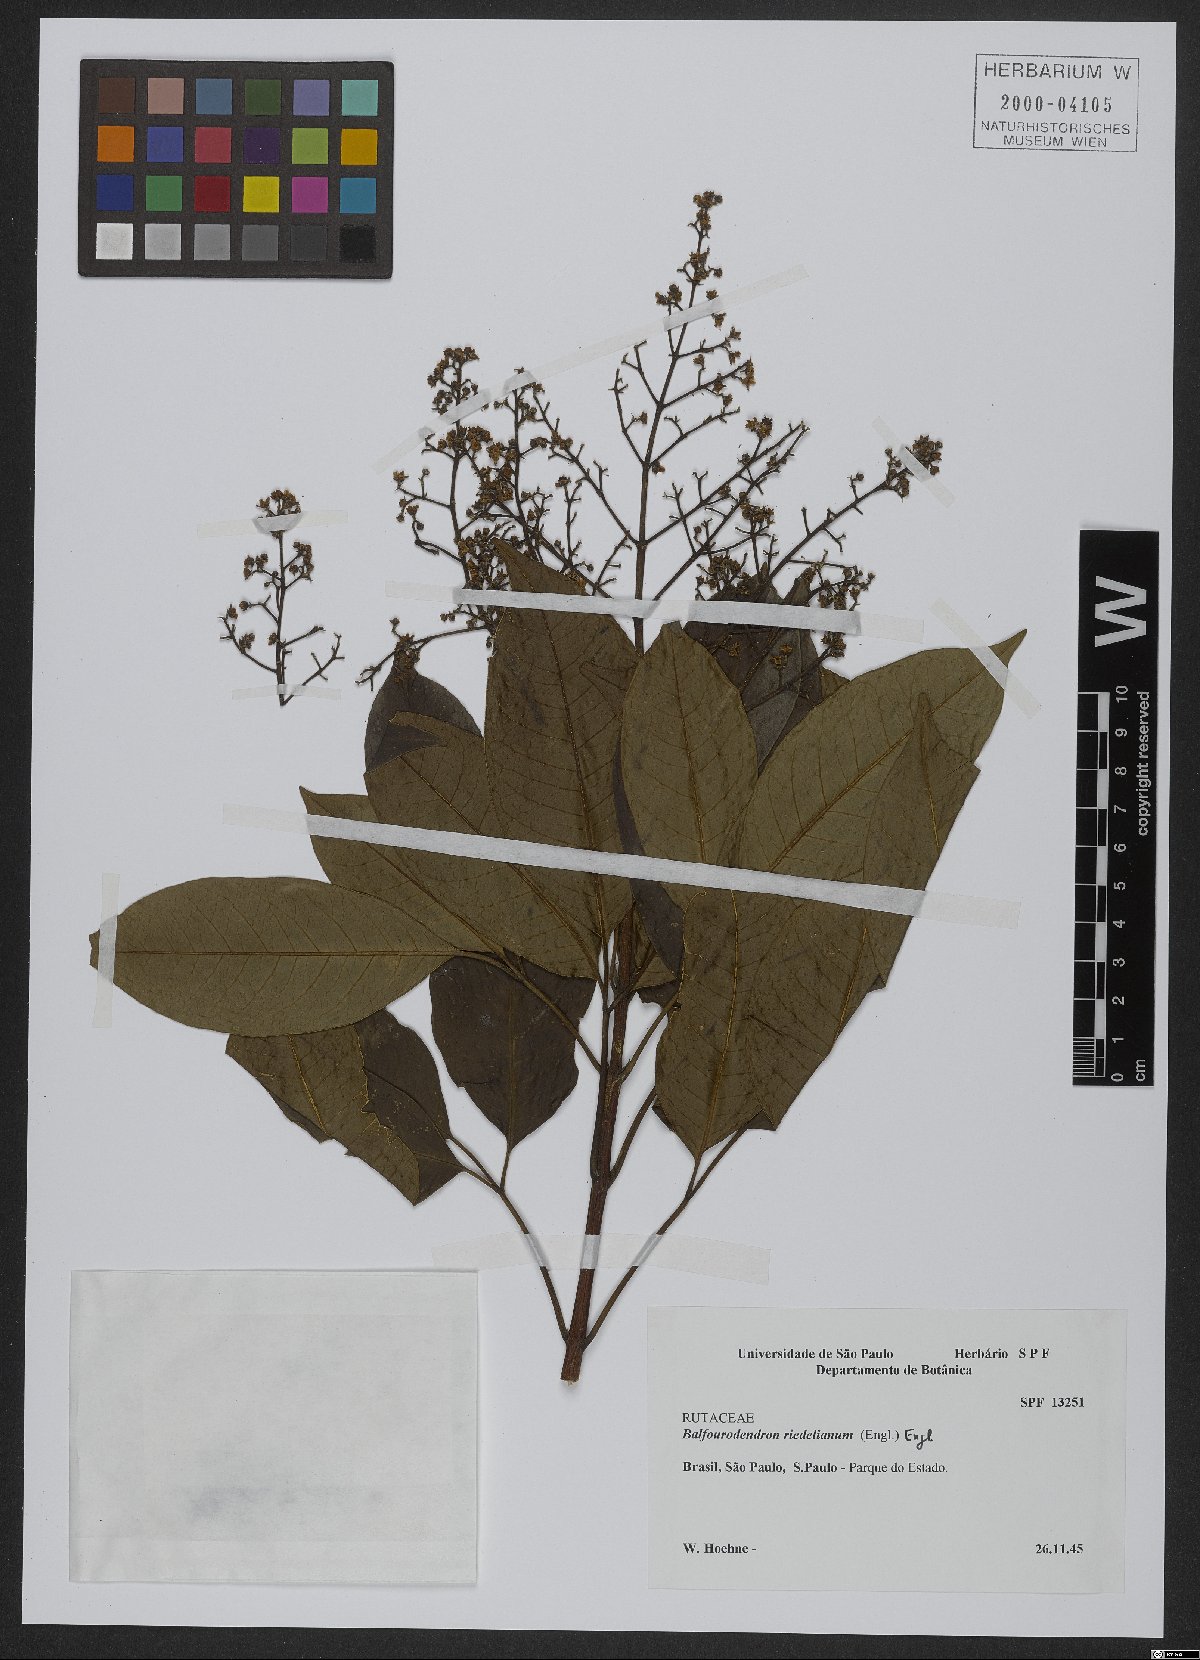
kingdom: Plantae
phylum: Tracheophyta
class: Magnoliopsida
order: Sapindales
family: Rutaceae
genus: Balfourodendron
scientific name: Balfourodendron riedelianum
